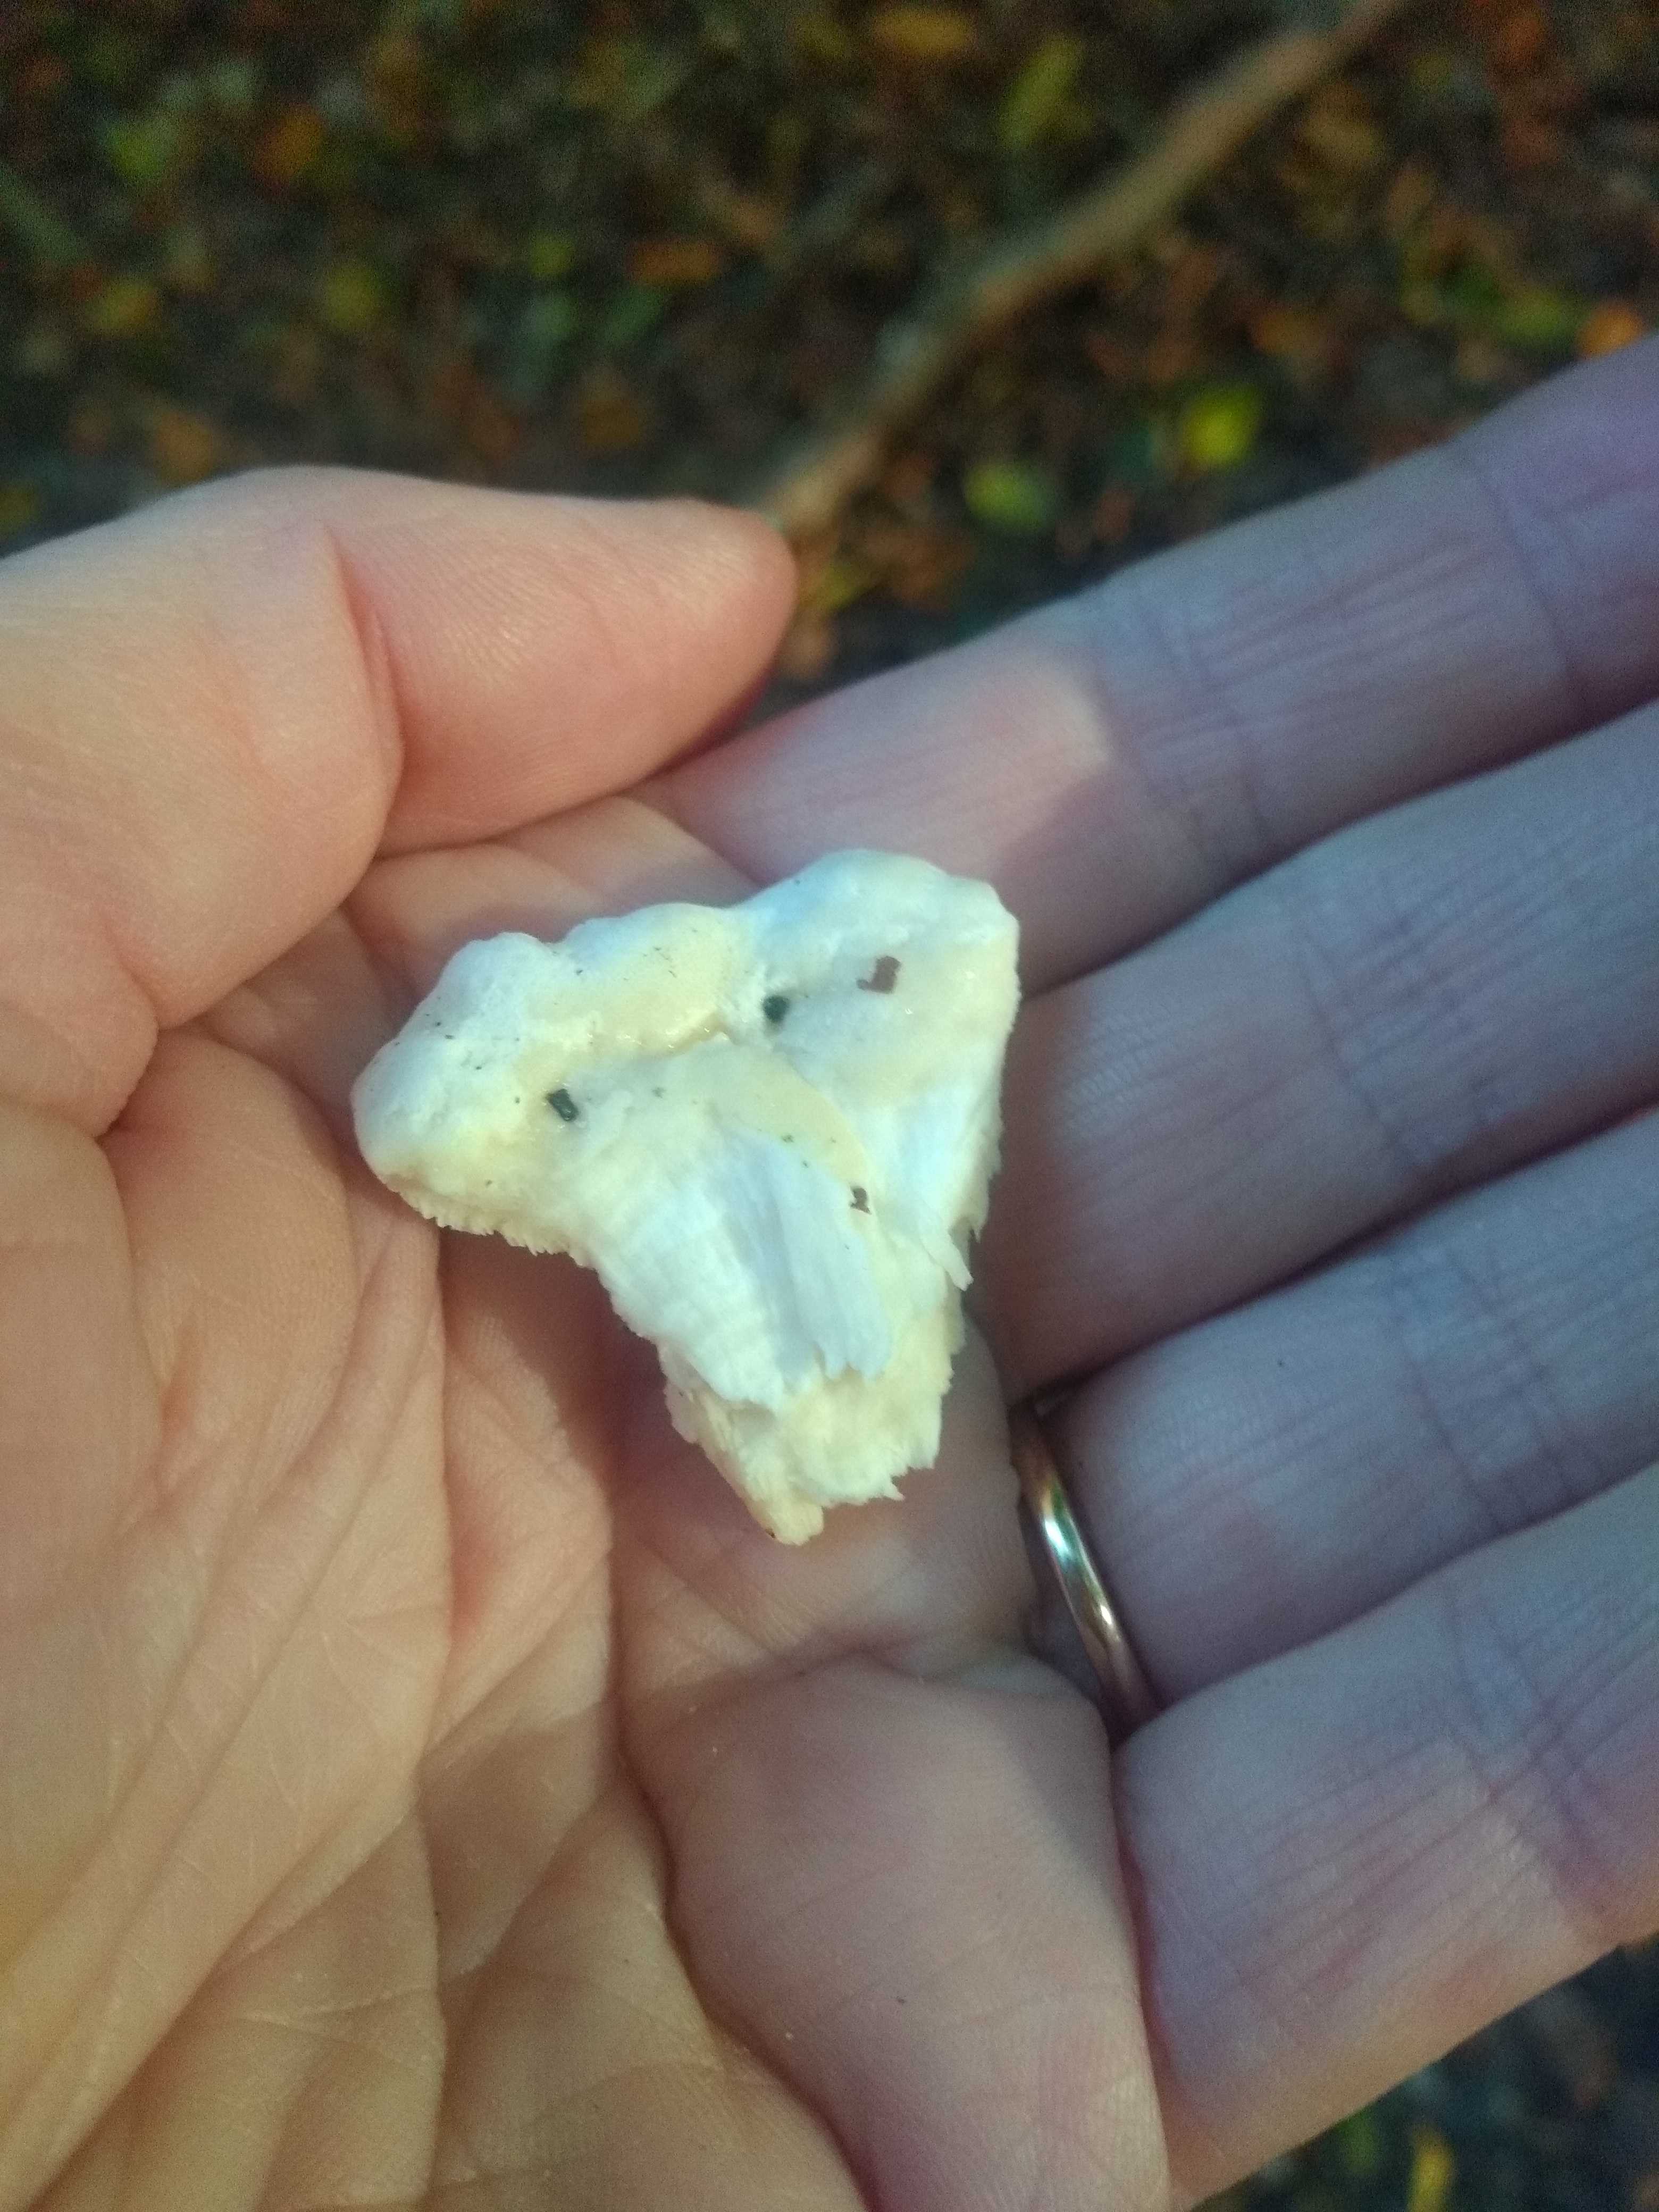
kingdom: Fungi
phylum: Basidiomycota
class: Agaricomycetes
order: Polyporales
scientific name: Polyporales
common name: poresvampordenen
